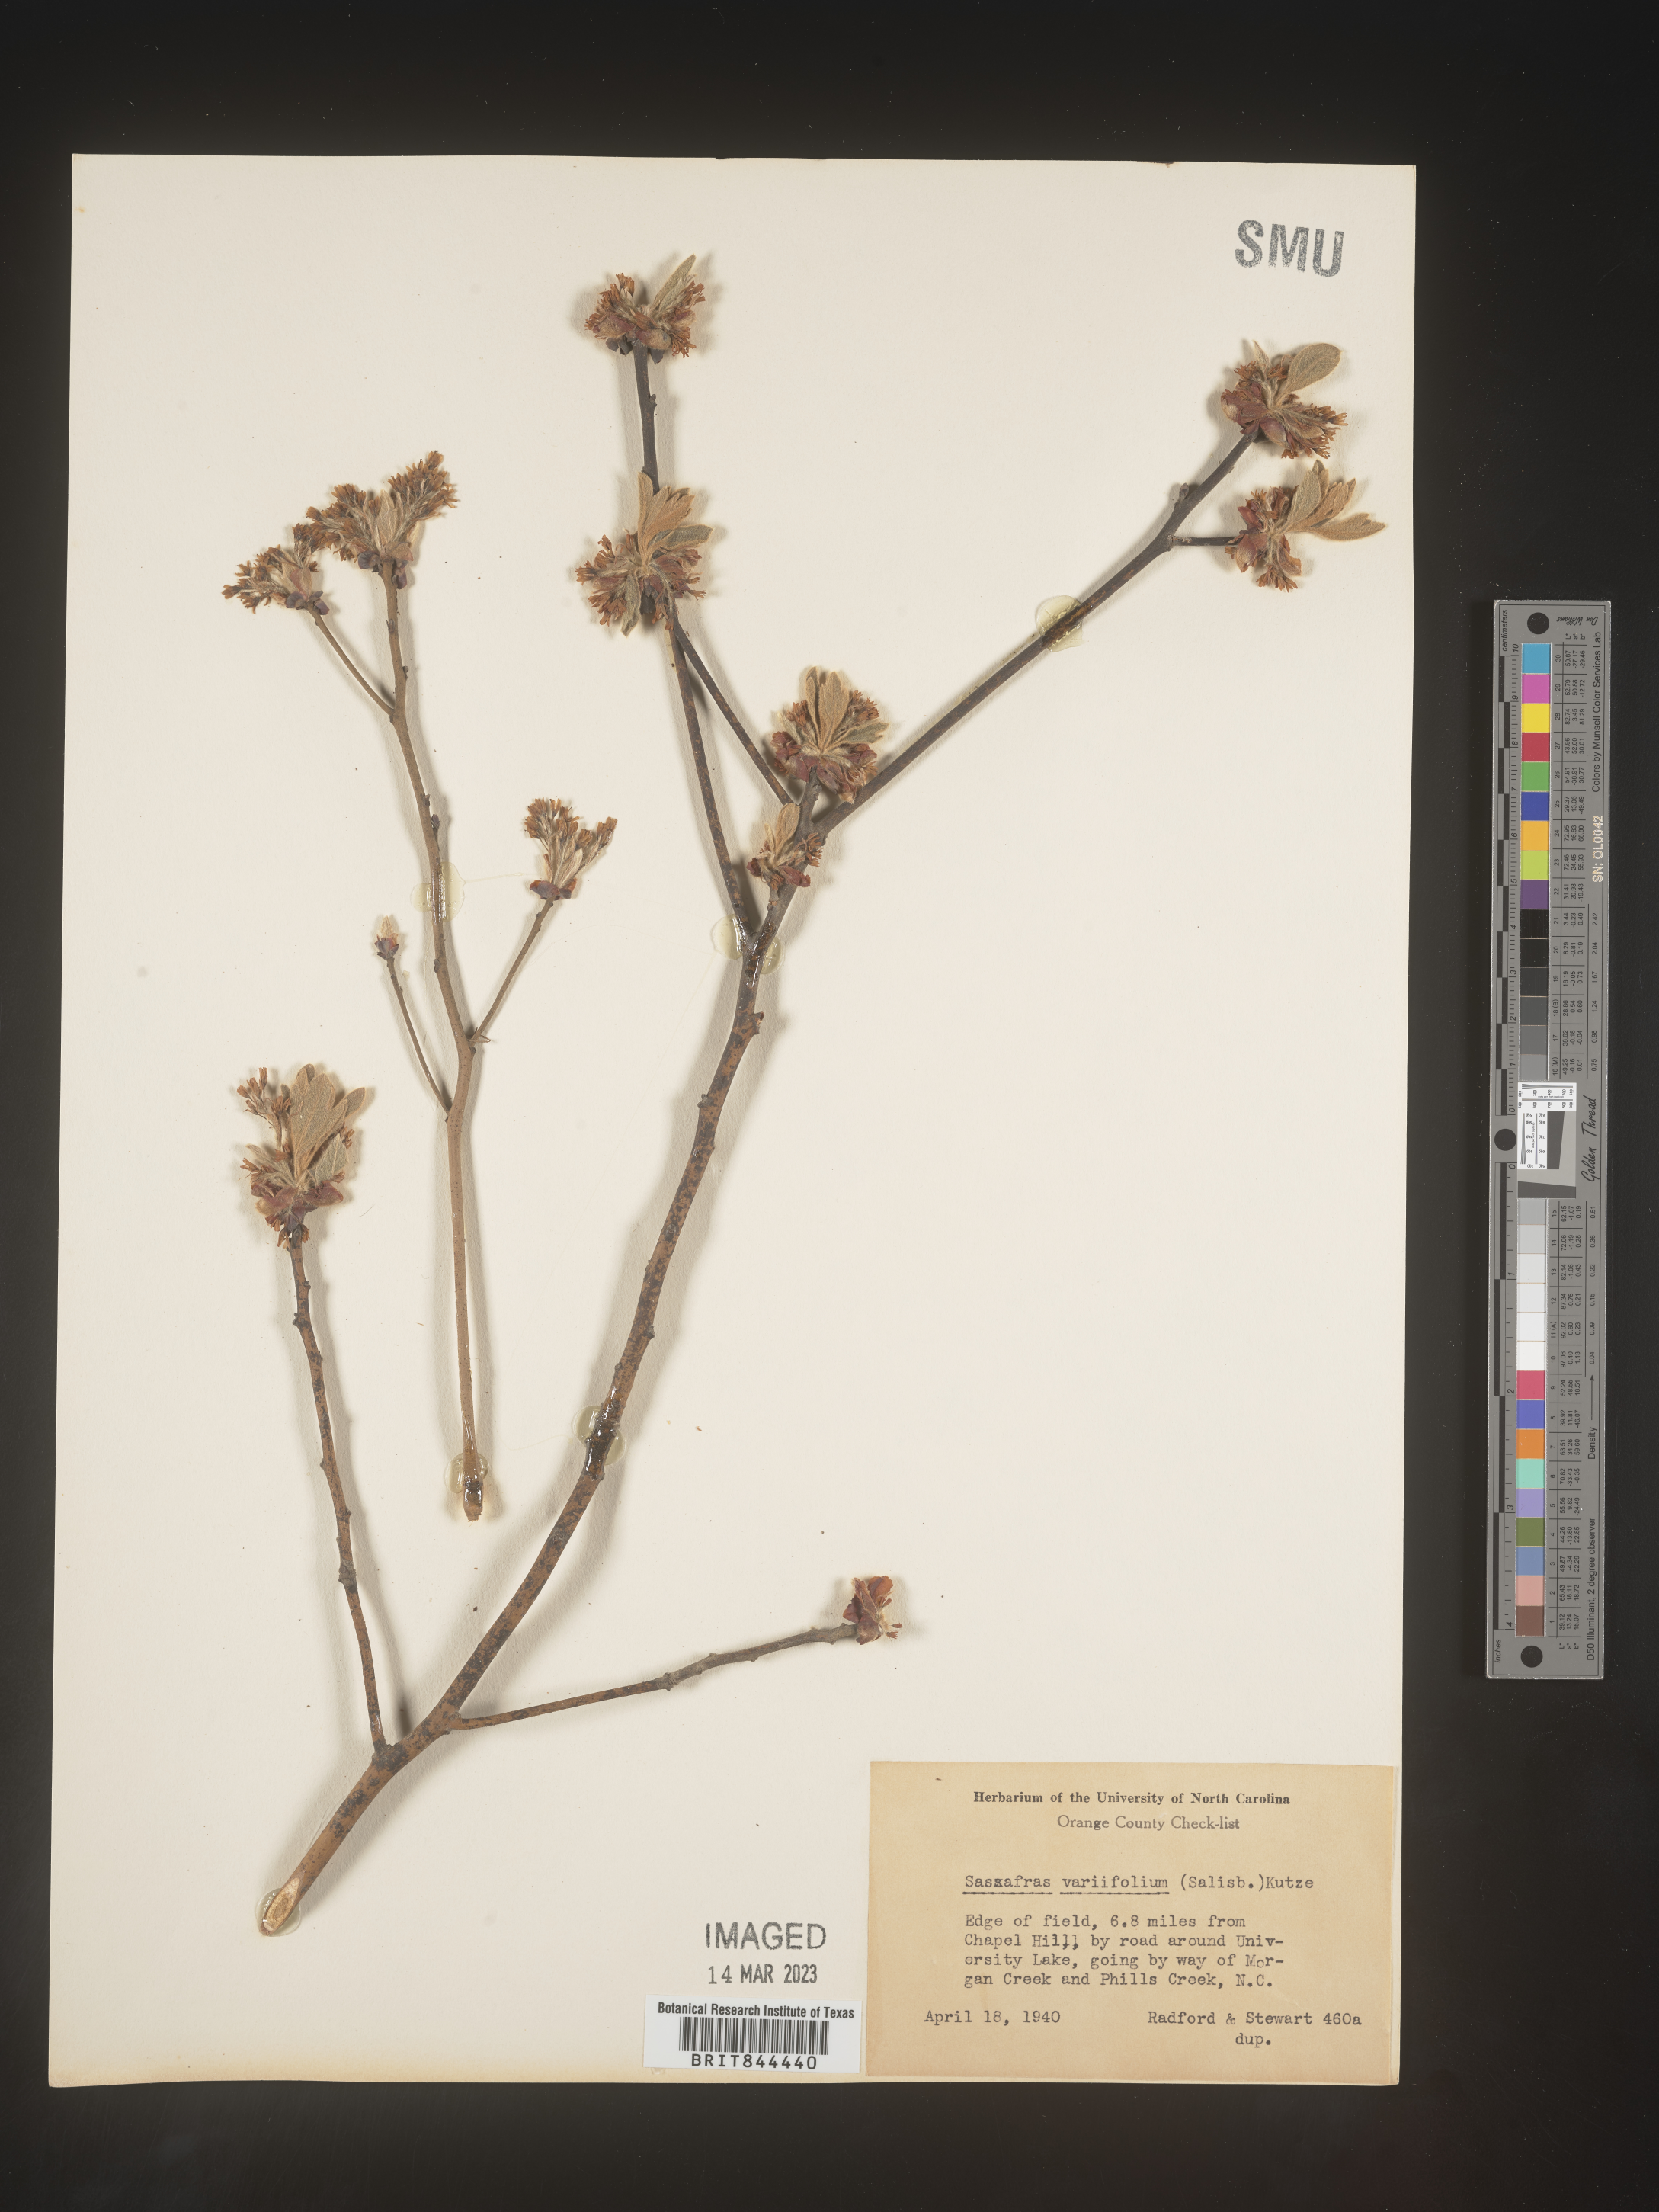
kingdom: Plantae
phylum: Tracheophyta
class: Magnoliopsida
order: Laurales
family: Lauraceae
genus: Sassafras
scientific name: Sassafras albidum
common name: Sassafras
